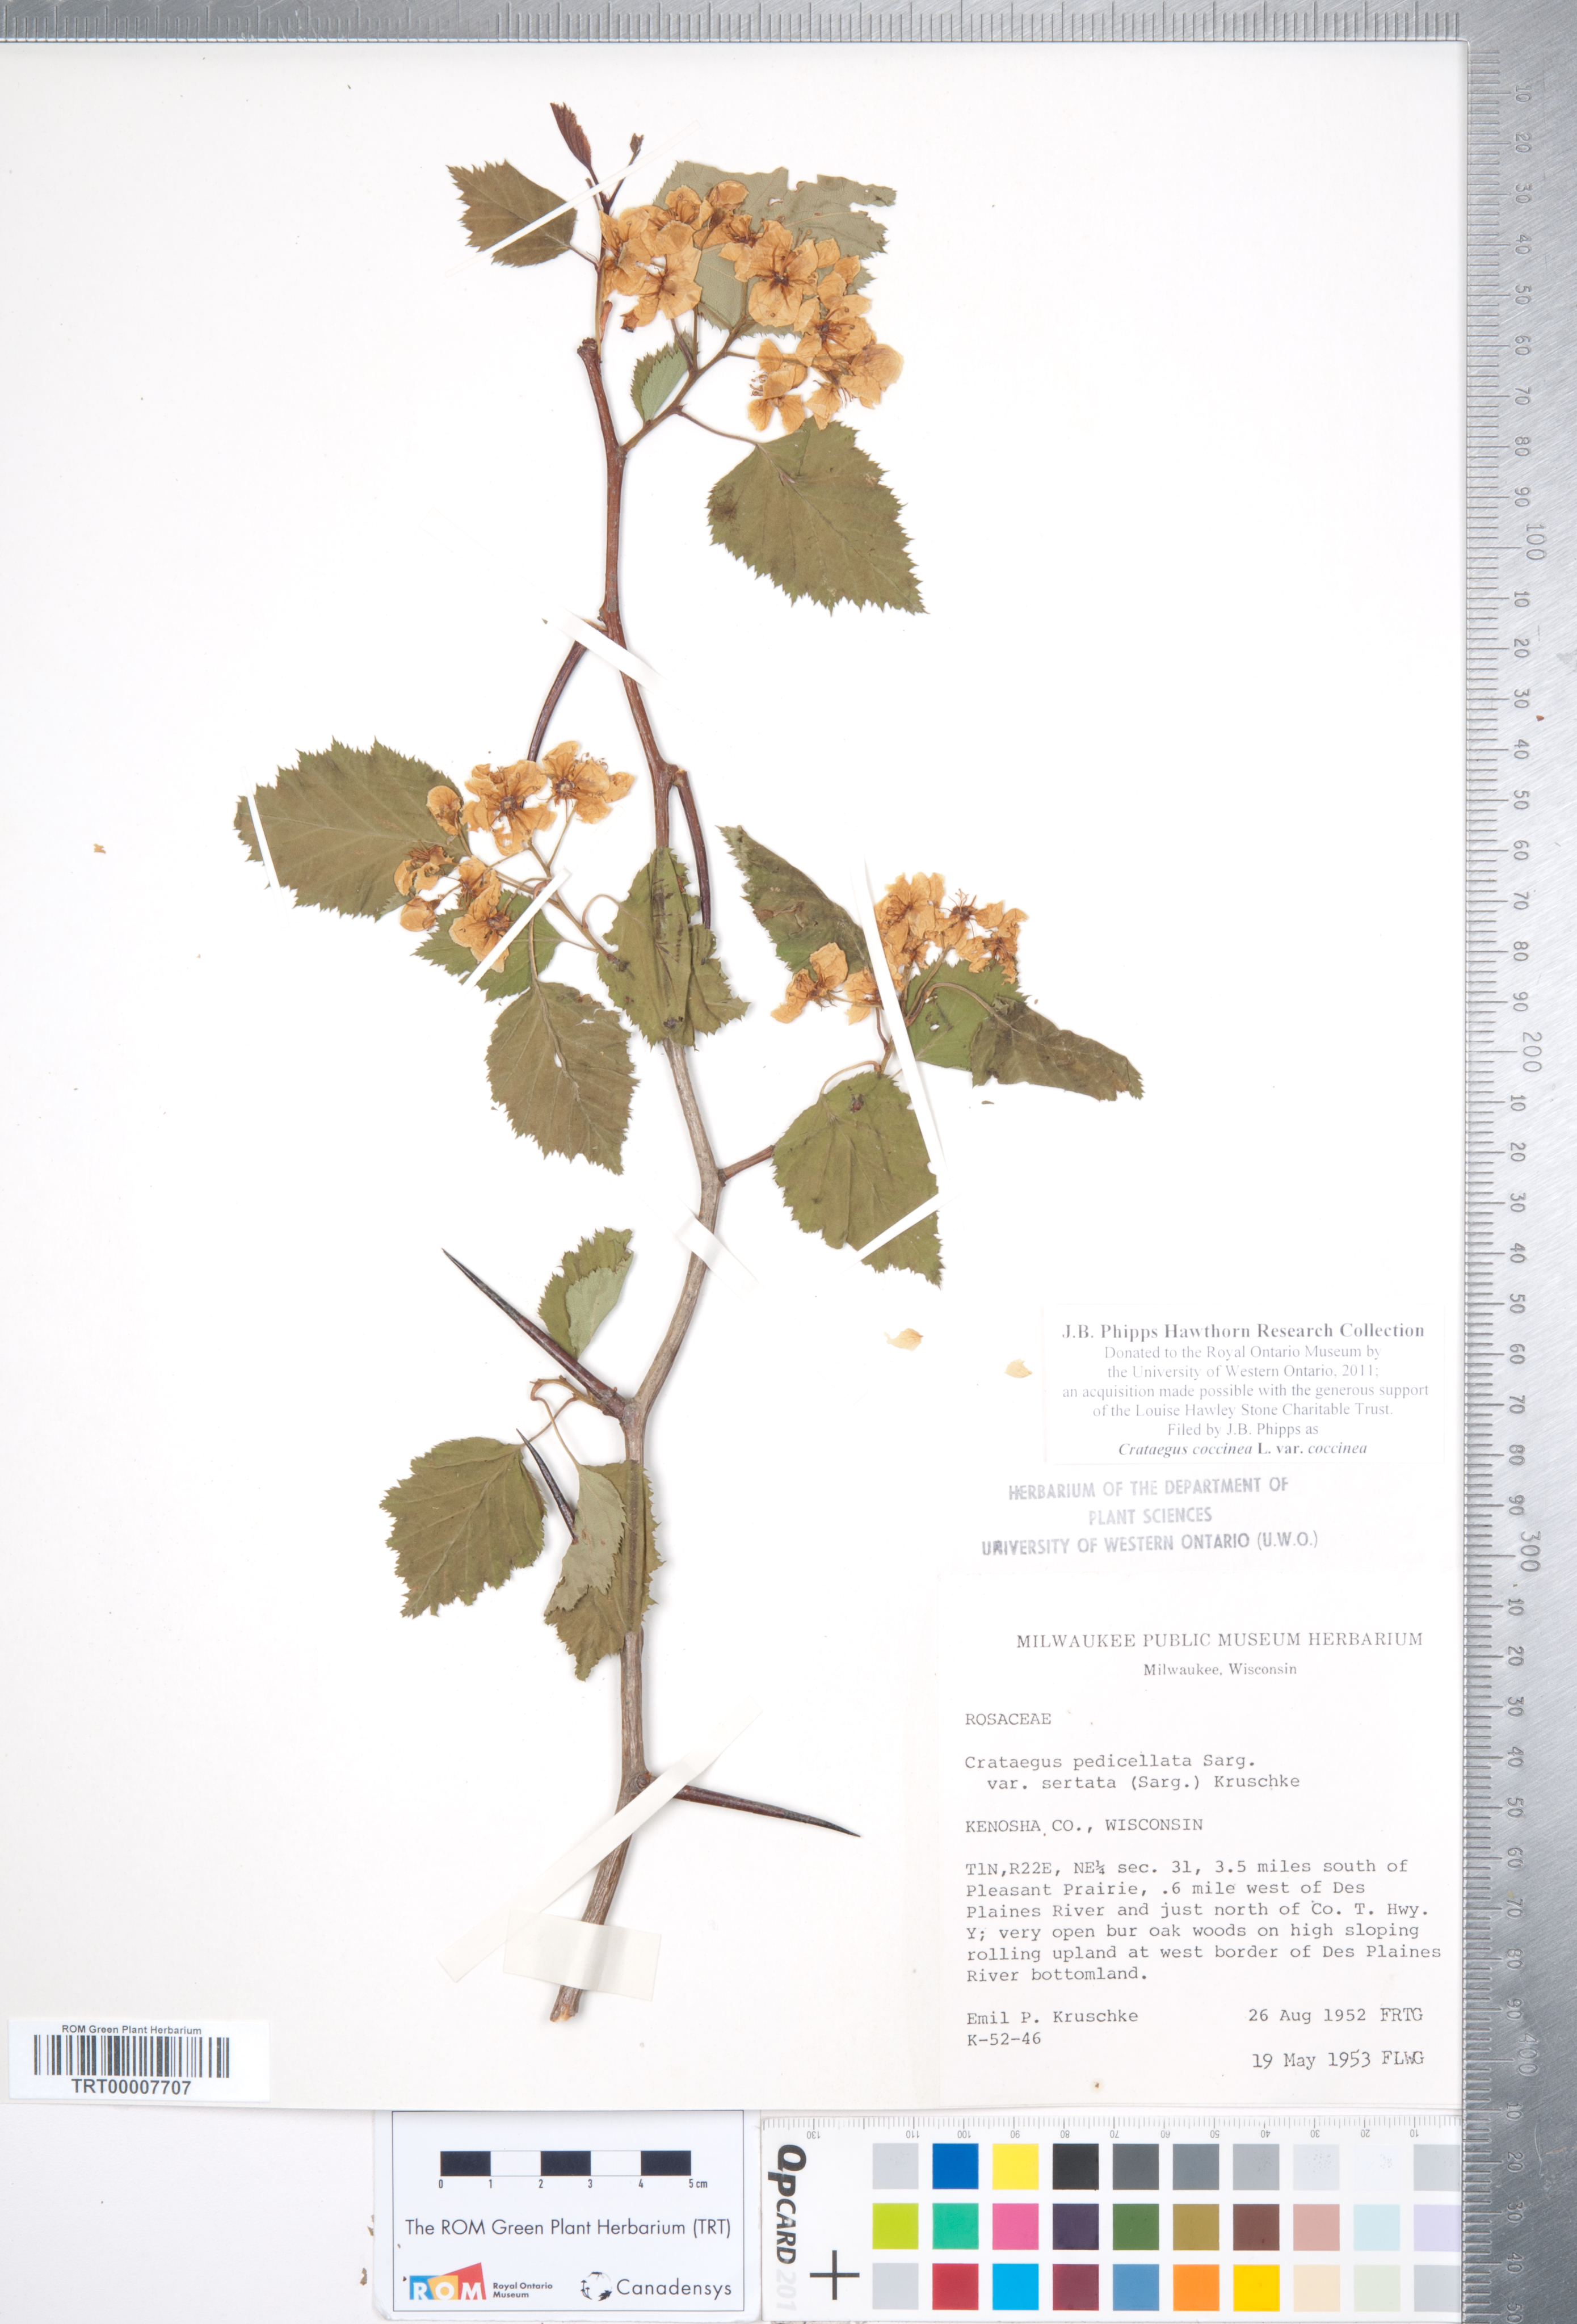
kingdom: Plantae
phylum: Tracheophyta
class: Magnoliopsida
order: Rosales
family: Rosaceae
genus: Crataegus
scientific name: Crataegus coccinea
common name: Scarlet hawthorn
